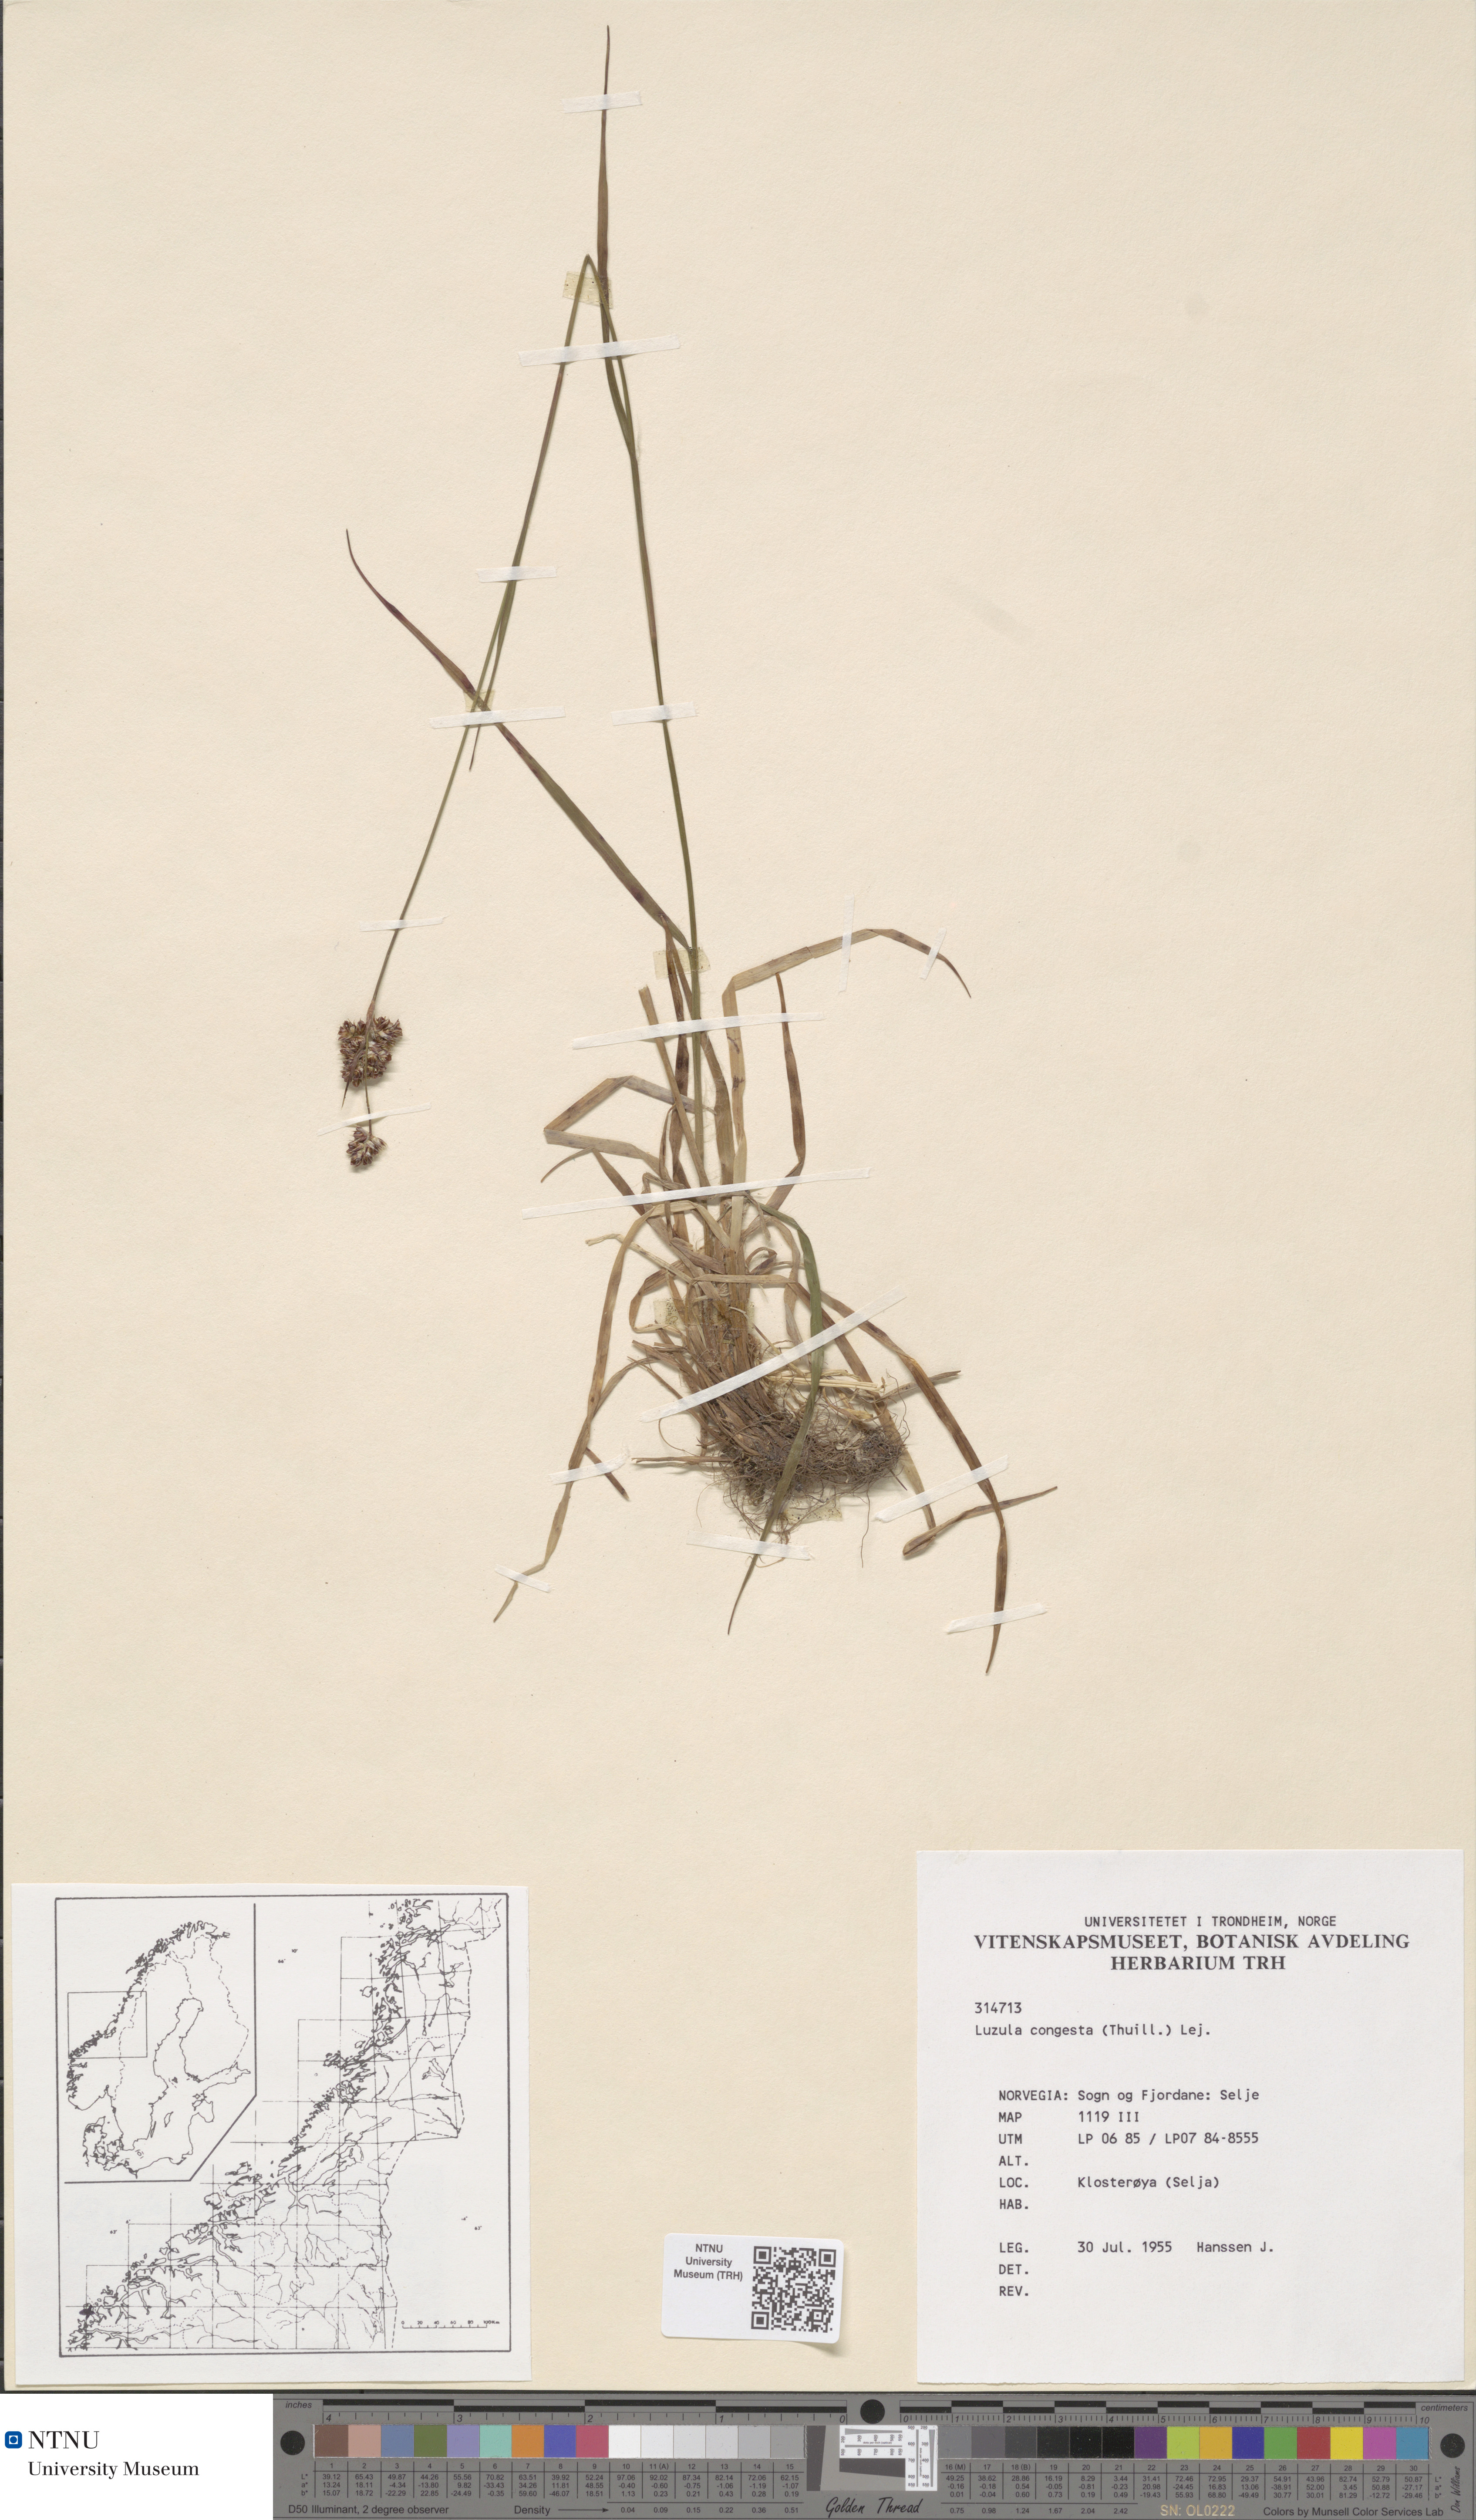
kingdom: Plantae
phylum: Tracheophyta
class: Liliopsida
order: Poales
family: Juncaceae
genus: Luzula
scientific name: Luzula congesta
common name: Heath woodrush
